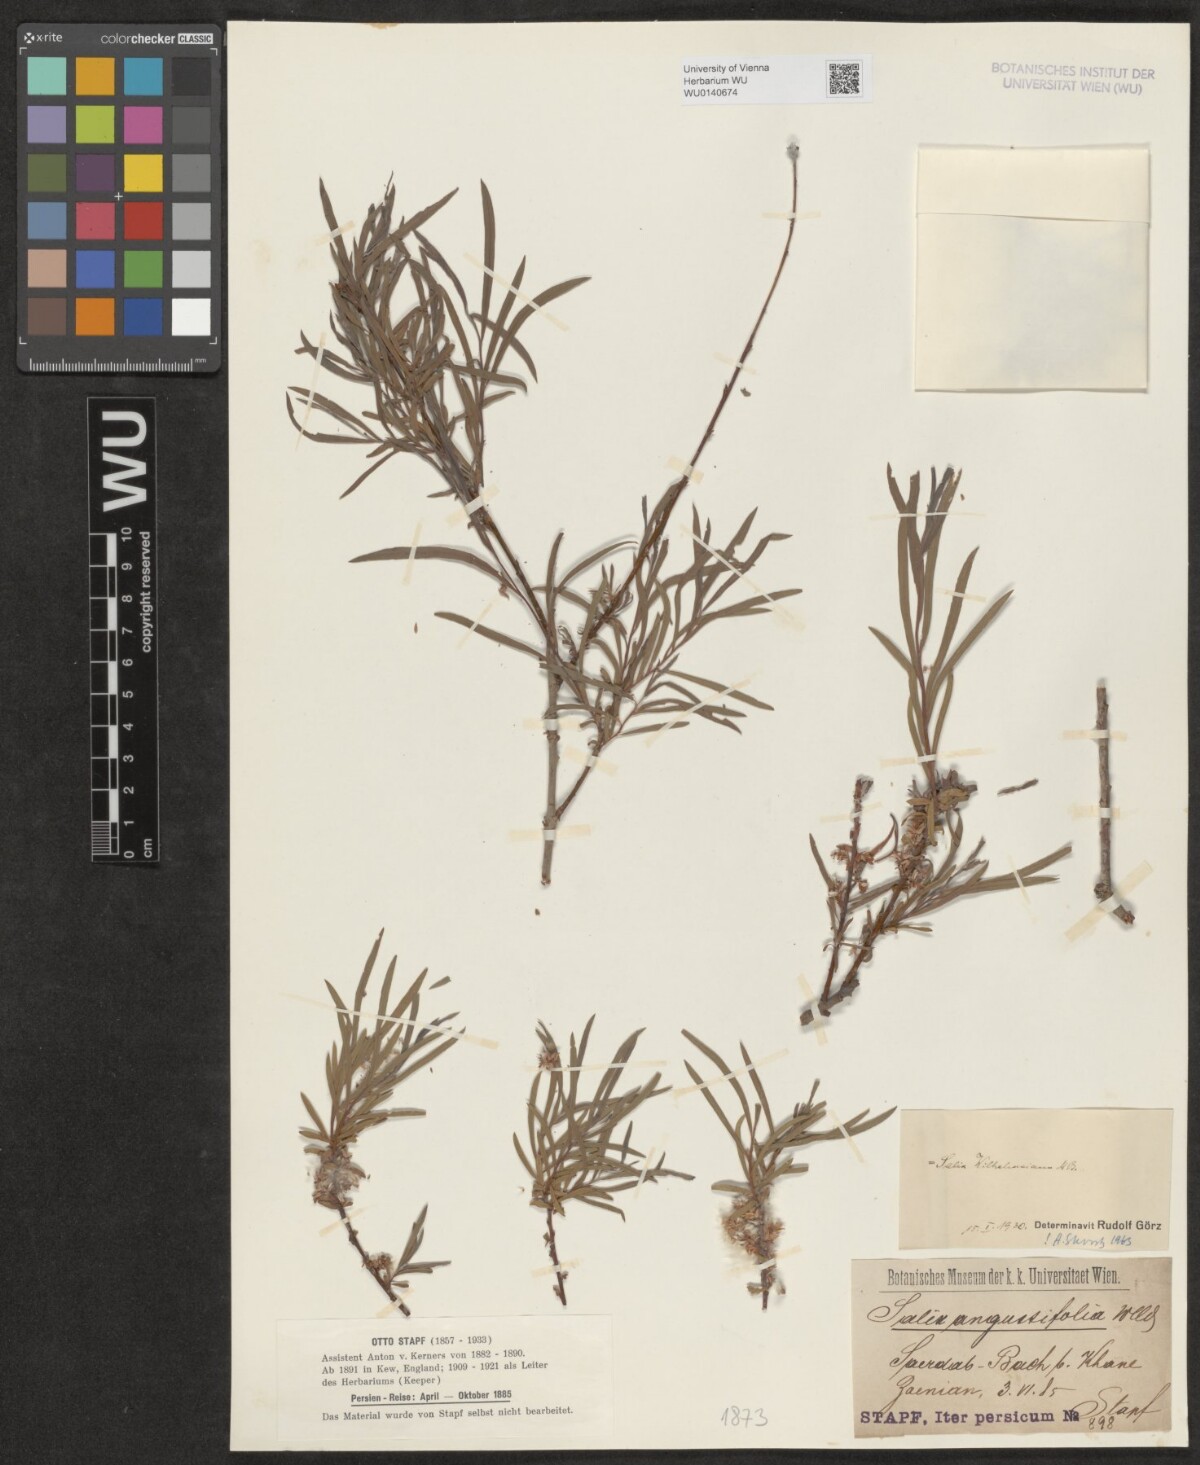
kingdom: Plantae
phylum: Tracheophyta
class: Magnoliopsida
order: Malpighiales
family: Salicaceae
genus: Salix
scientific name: Salix wilhelmsiana
